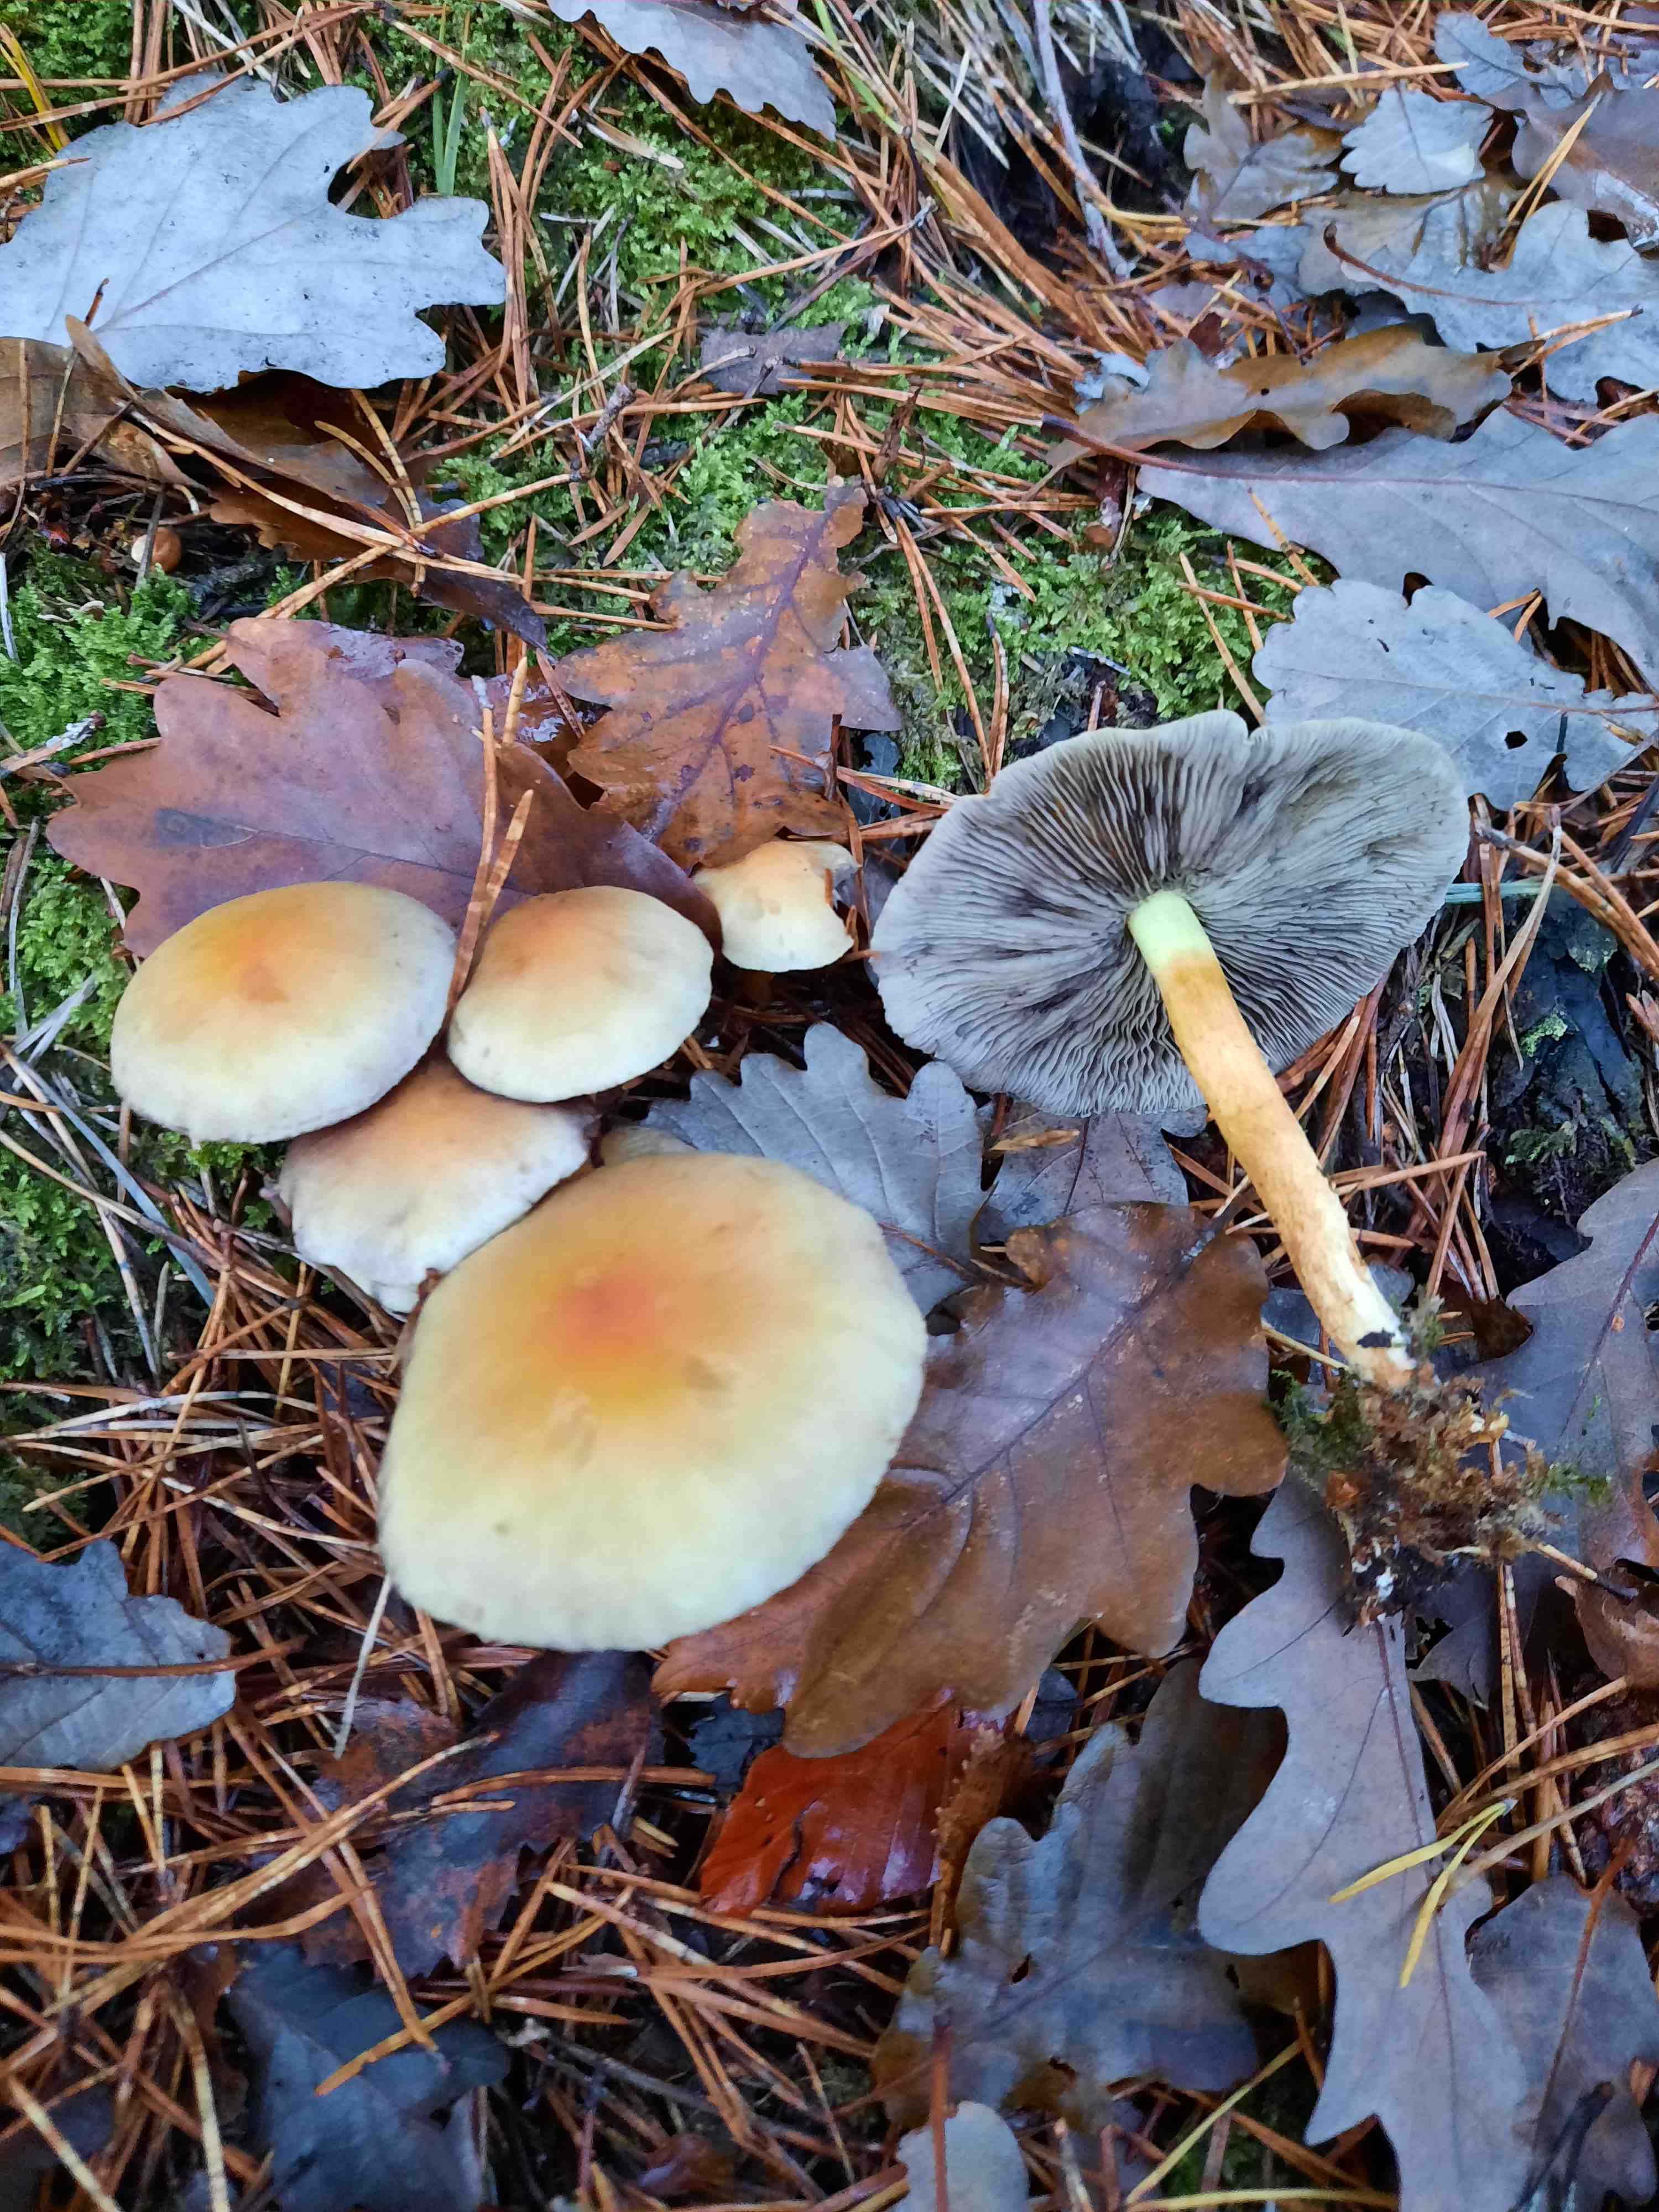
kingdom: Fungi
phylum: Basidiomycota
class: Agaricomycetes
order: Agaricales
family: Strophariaceae
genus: Hypholoma
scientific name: Hypholoma fasciculare
